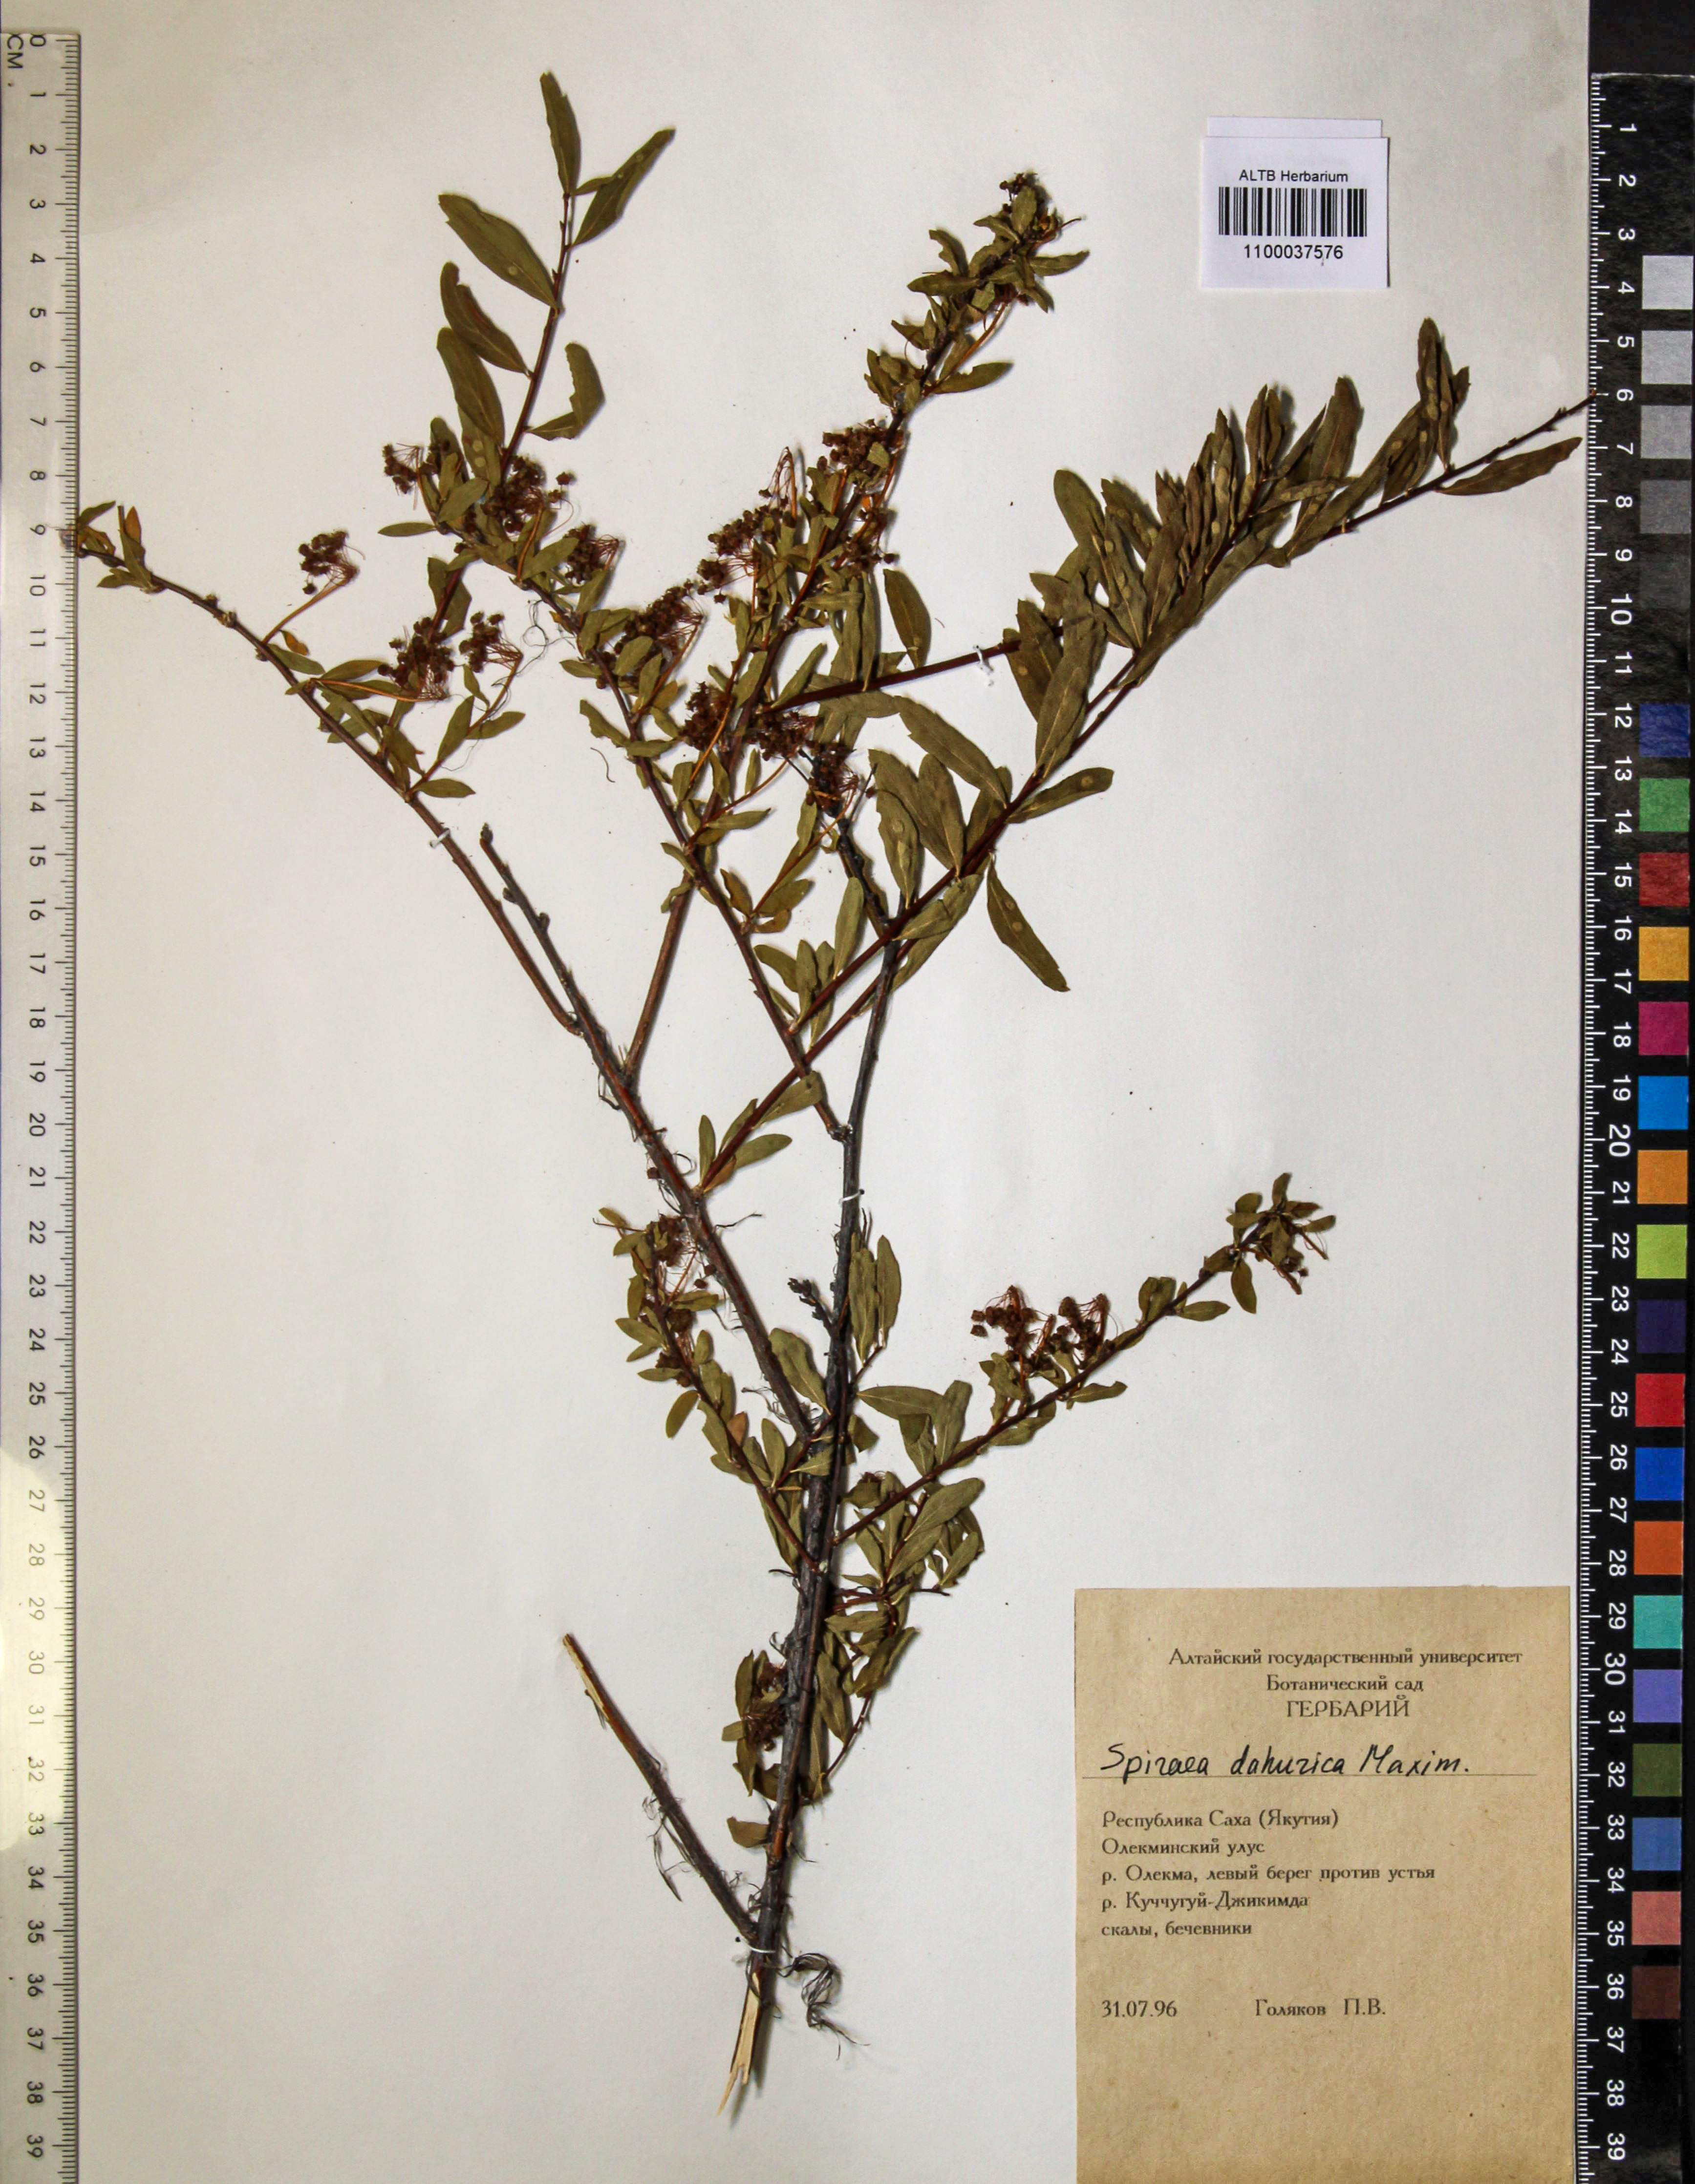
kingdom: Plantae
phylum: Tracheophyta
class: Magnoliopsida
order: Rosales
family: Rosaceae
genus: Spiraea
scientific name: Spiraea dahurica
